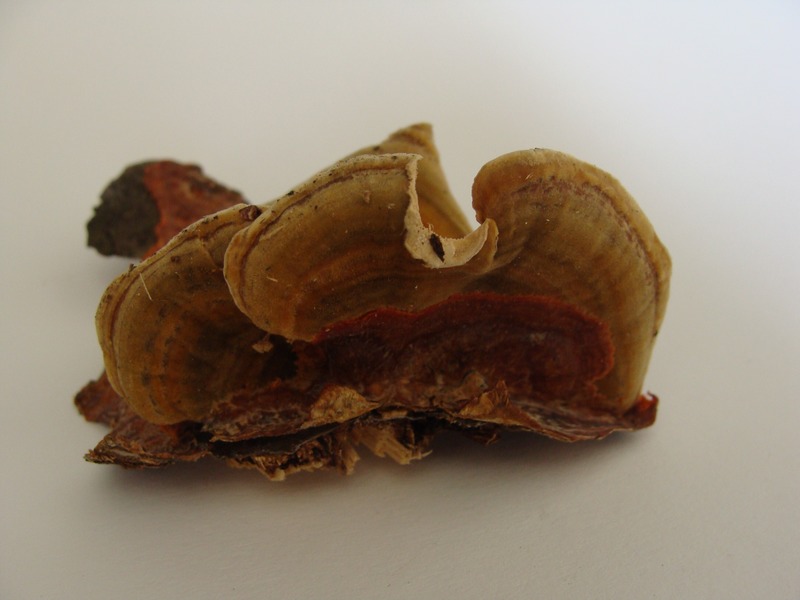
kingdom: Fungi
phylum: Basidiomycota
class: Agaricomycetes
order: Polyporales
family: Meruliaceae
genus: Phlebia
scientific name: Phlebia radiata
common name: Wrinkled crust
